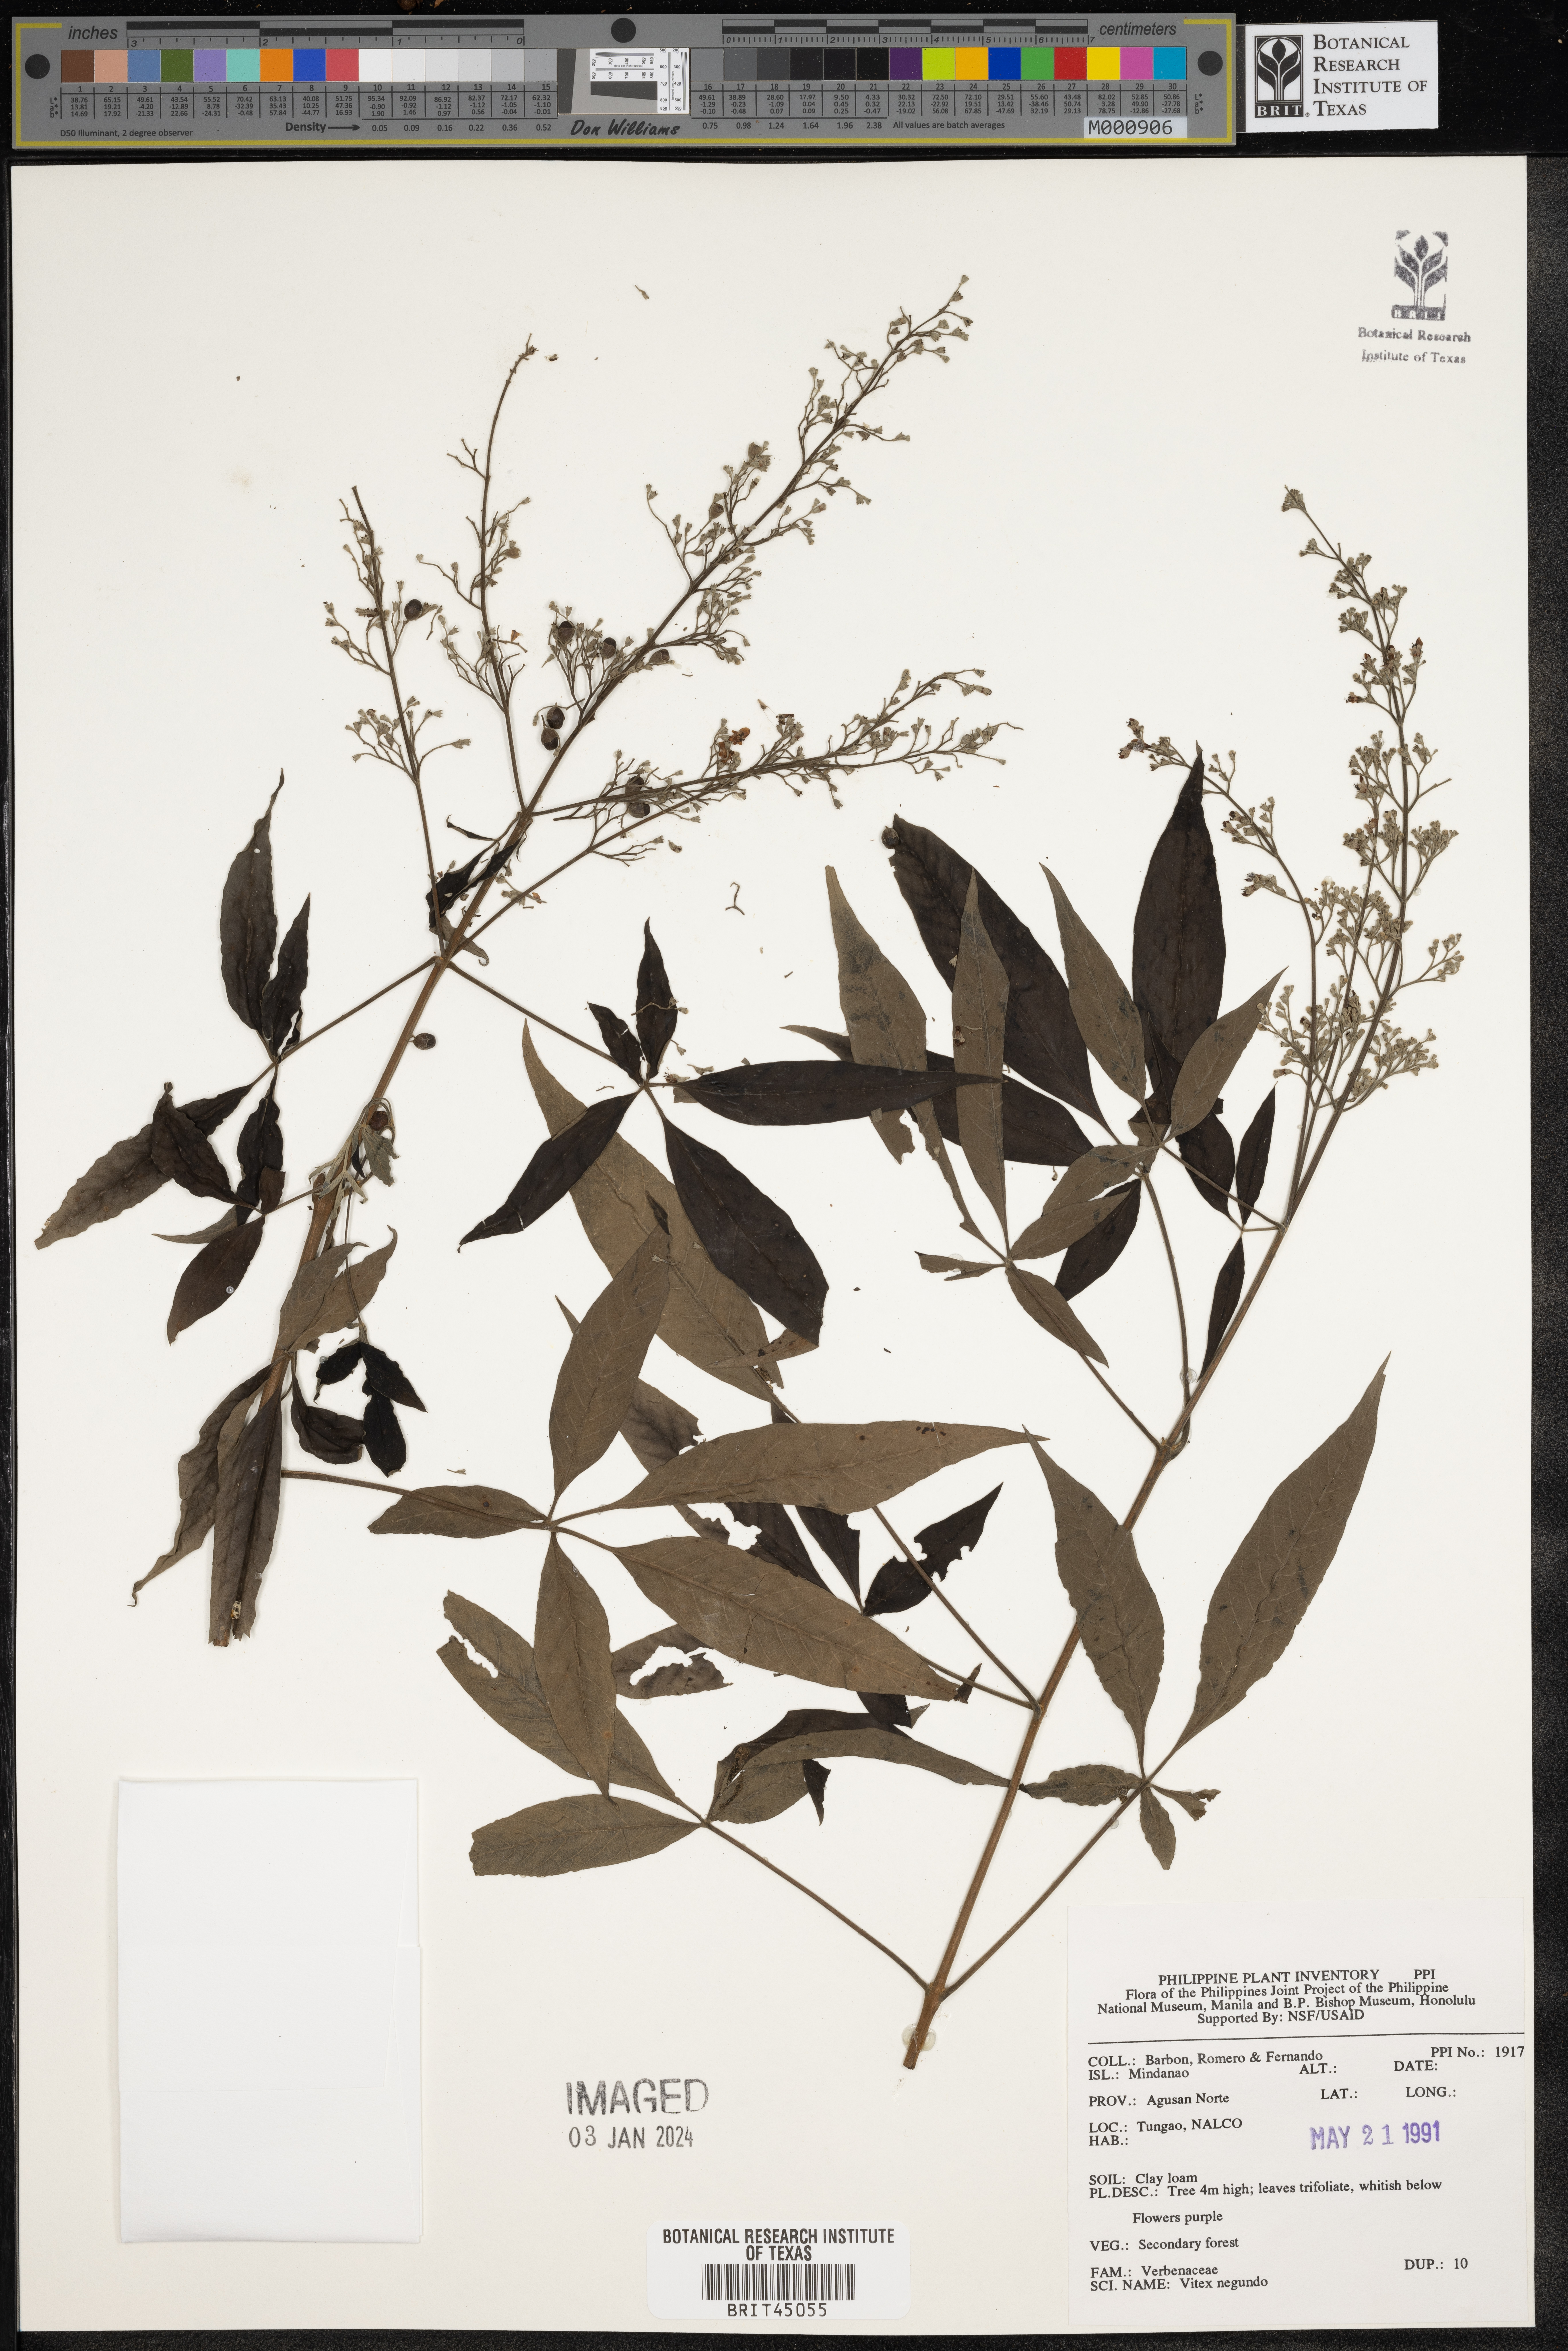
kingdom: Plantae
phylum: Tracheophyta
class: Magnoliopsida
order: Lamiales
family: Lamiaceae
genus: Vitex
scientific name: Vitex negundo
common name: Chinese chastetree
